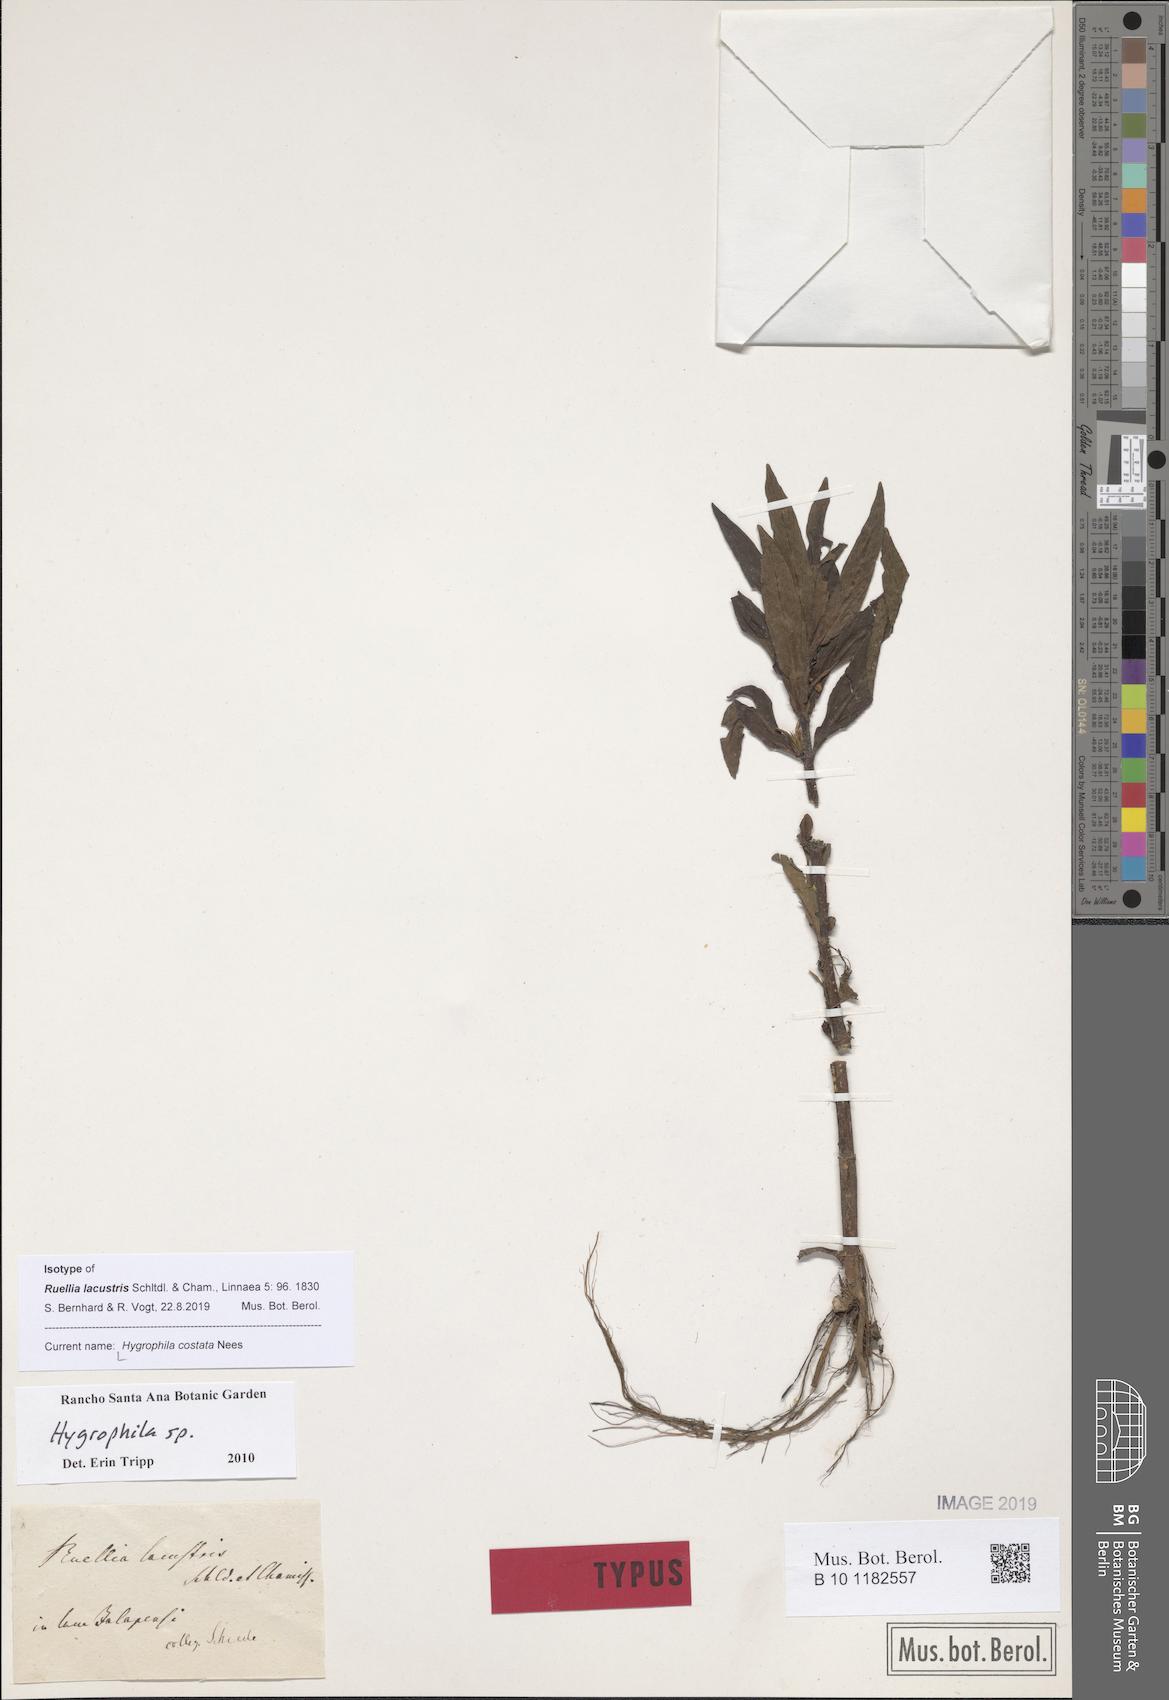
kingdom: Plantae
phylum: Tracheophyta
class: Magnoliopsida
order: Lamiales
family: Acanthaceae
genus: Hygrophila
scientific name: Hygrophila costata
